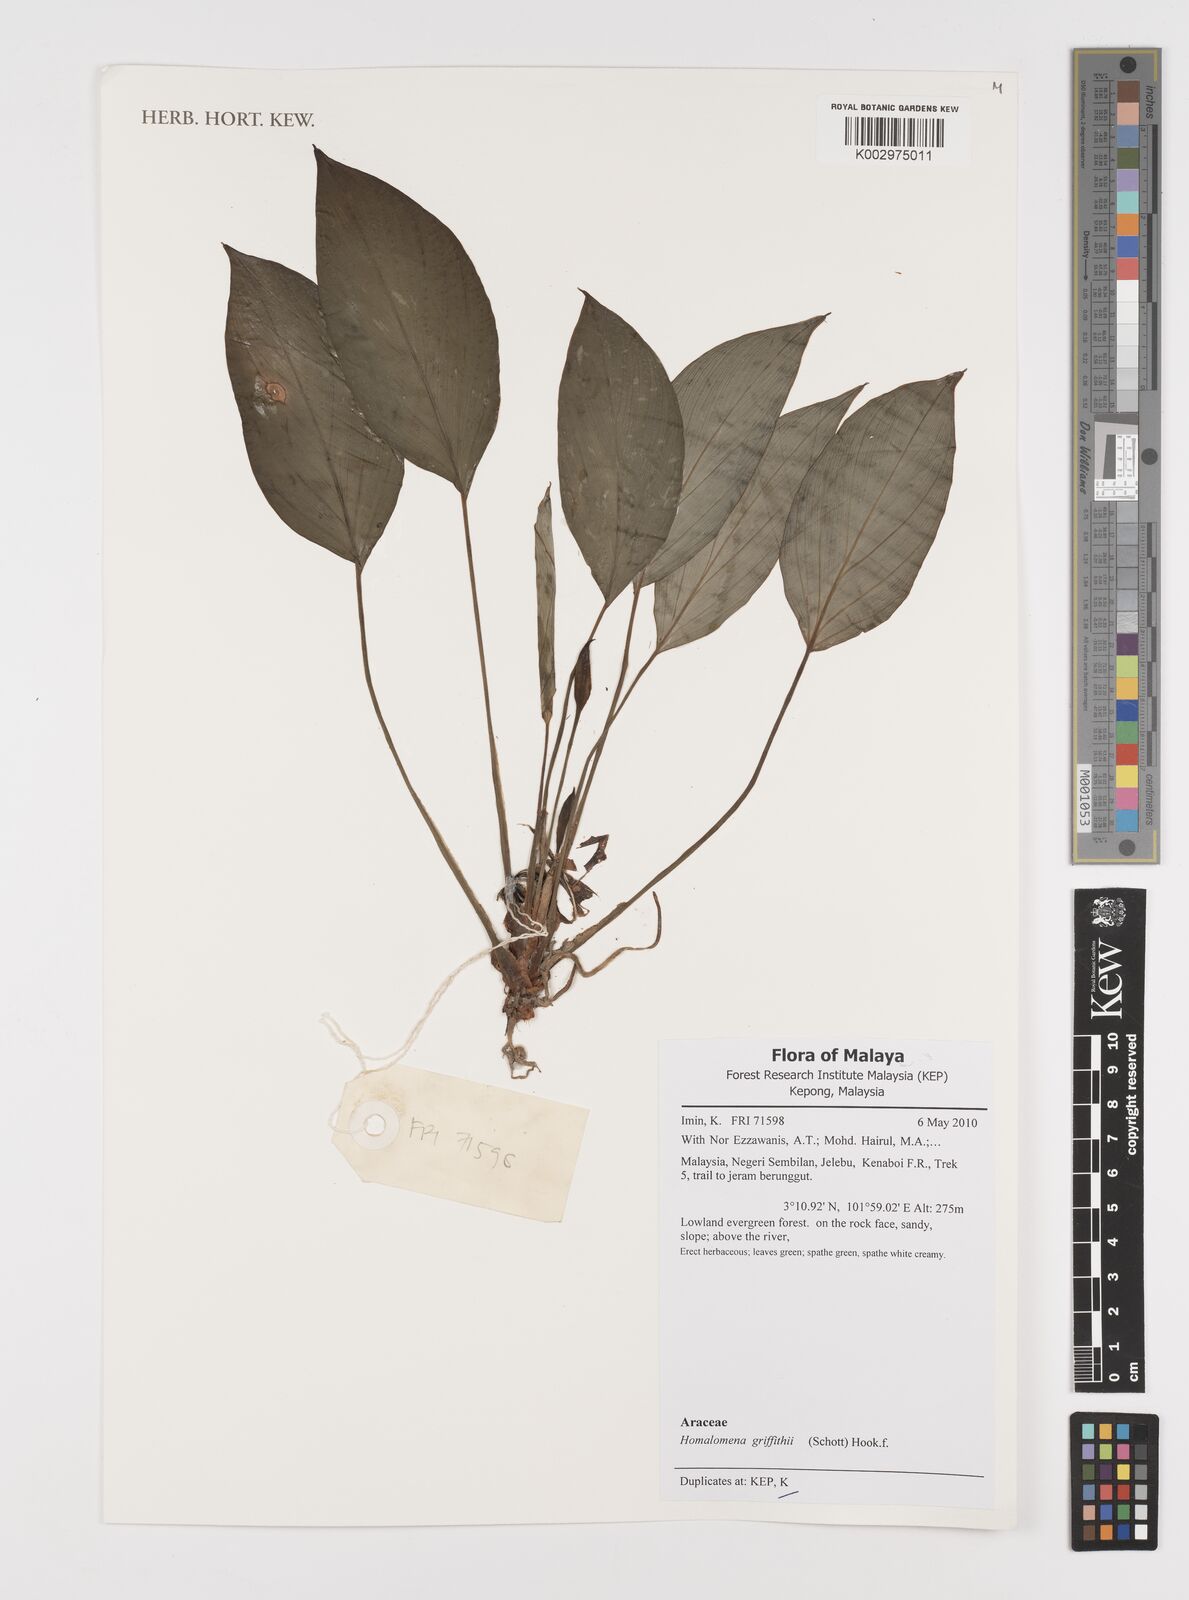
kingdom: Plantae
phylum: Tracheophyta
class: Liliopsida
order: Alismatales
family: Araceae
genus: Homalomena
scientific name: Homalomena griffithii
